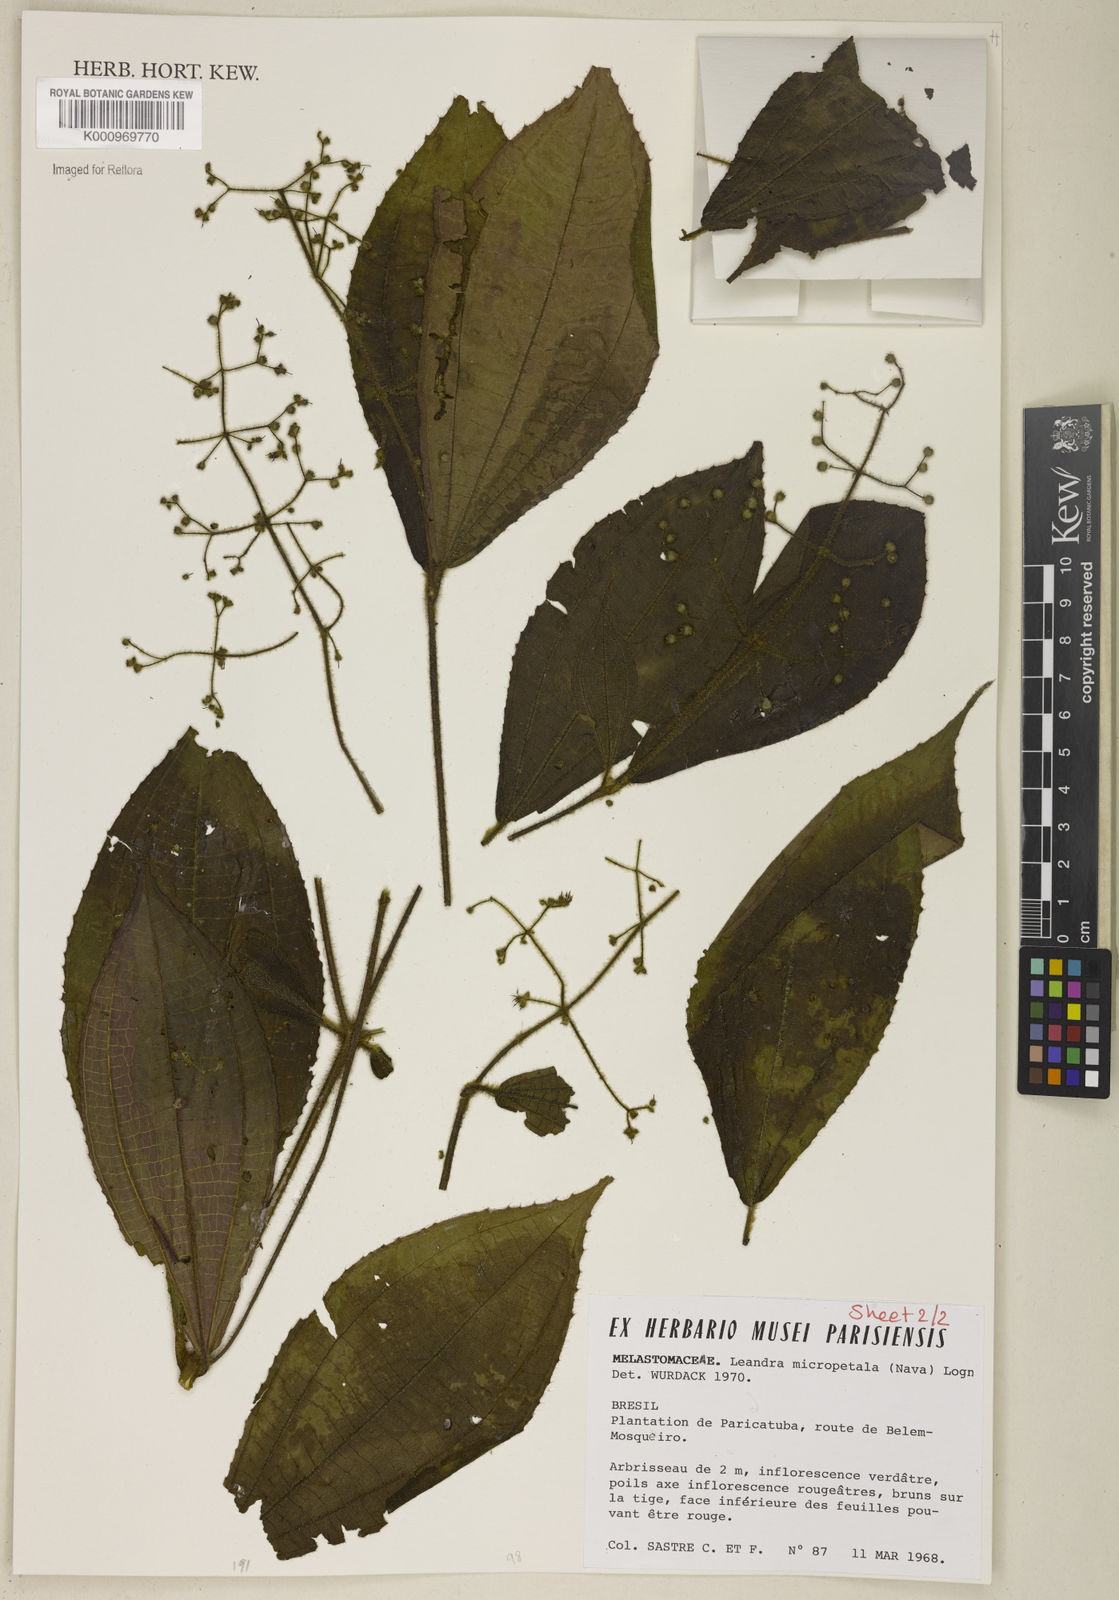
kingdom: Plantae
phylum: Tracheophyta
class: Magnoliopsida
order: Myrtales
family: Melastomataceae
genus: Miconia
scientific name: Miconia nanopetala
